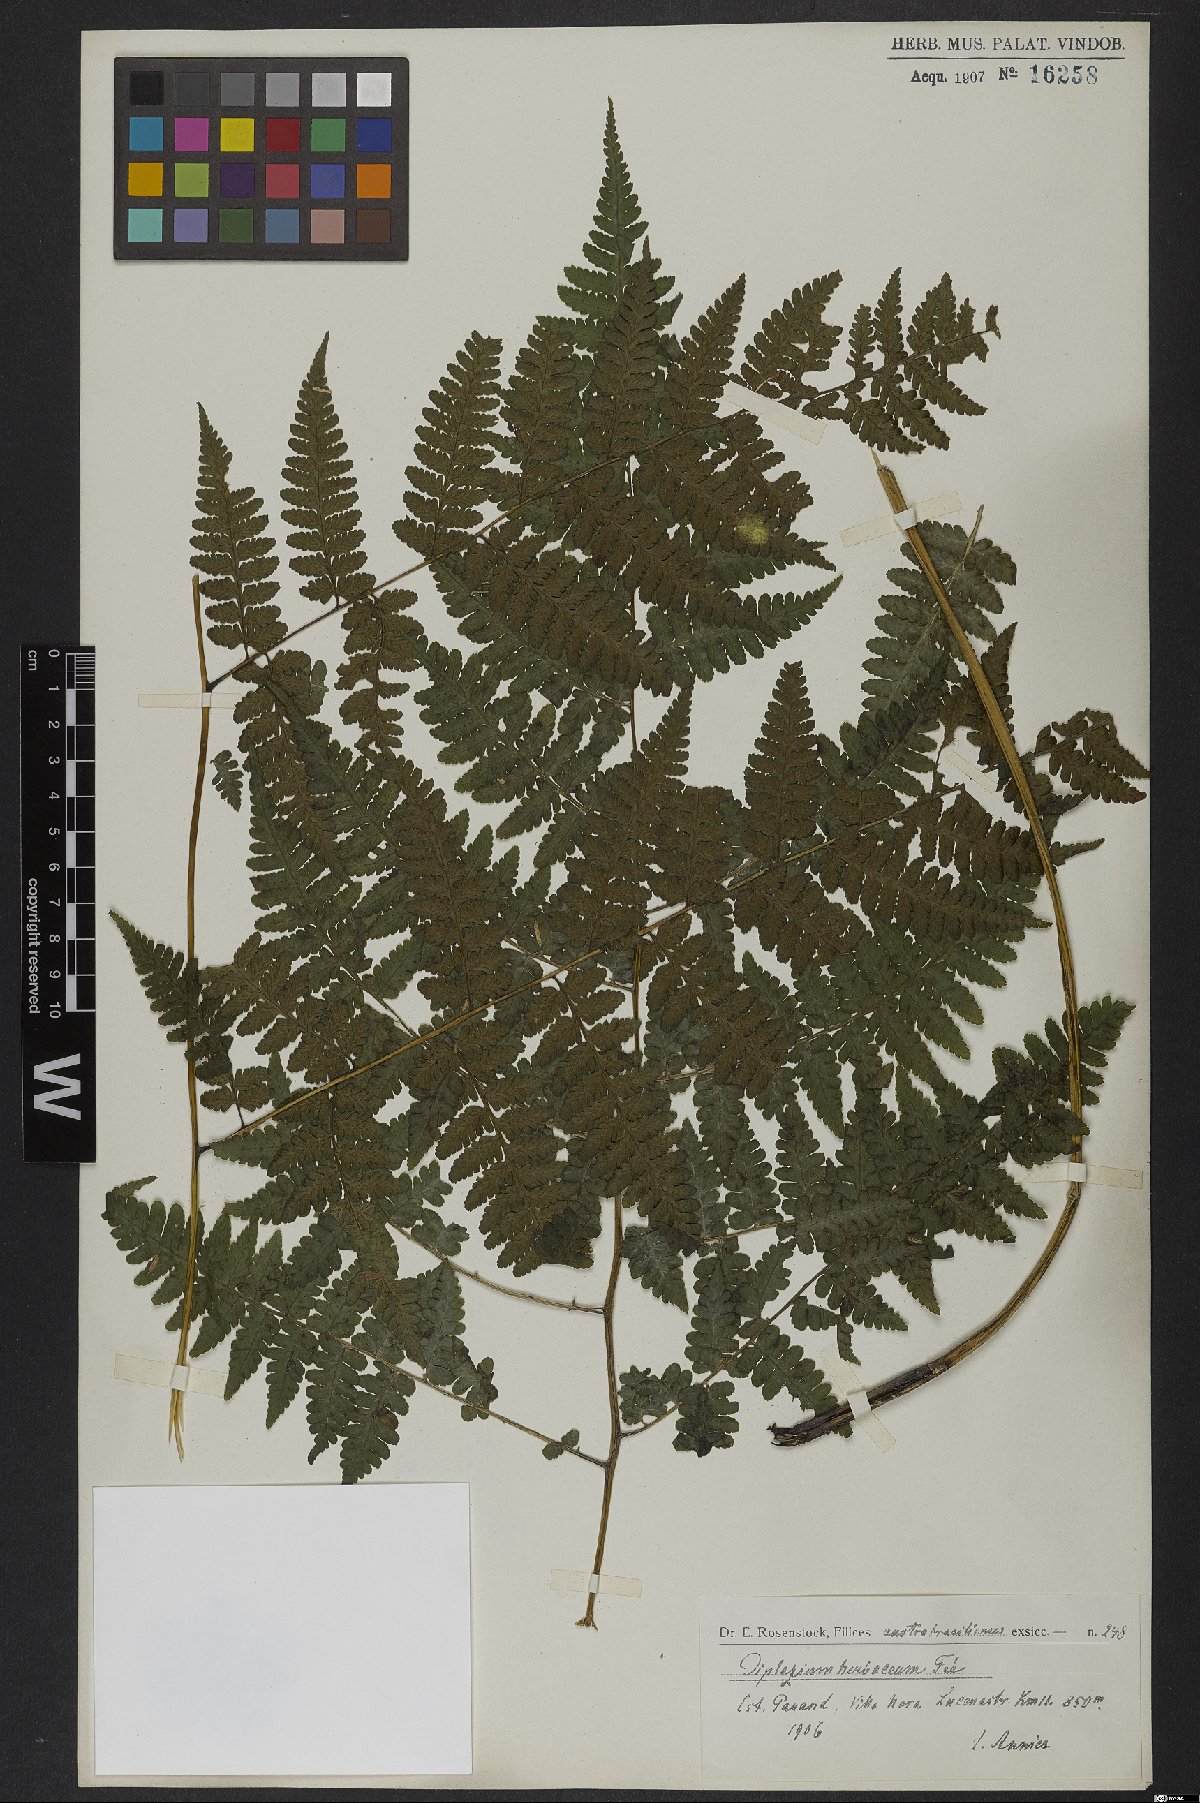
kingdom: Plantae
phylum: Tracheophyta
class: Polypodiopsida
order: Polypodiales
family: Athyriaceae
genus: Diplazium
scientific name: Diplazium herbaceum
